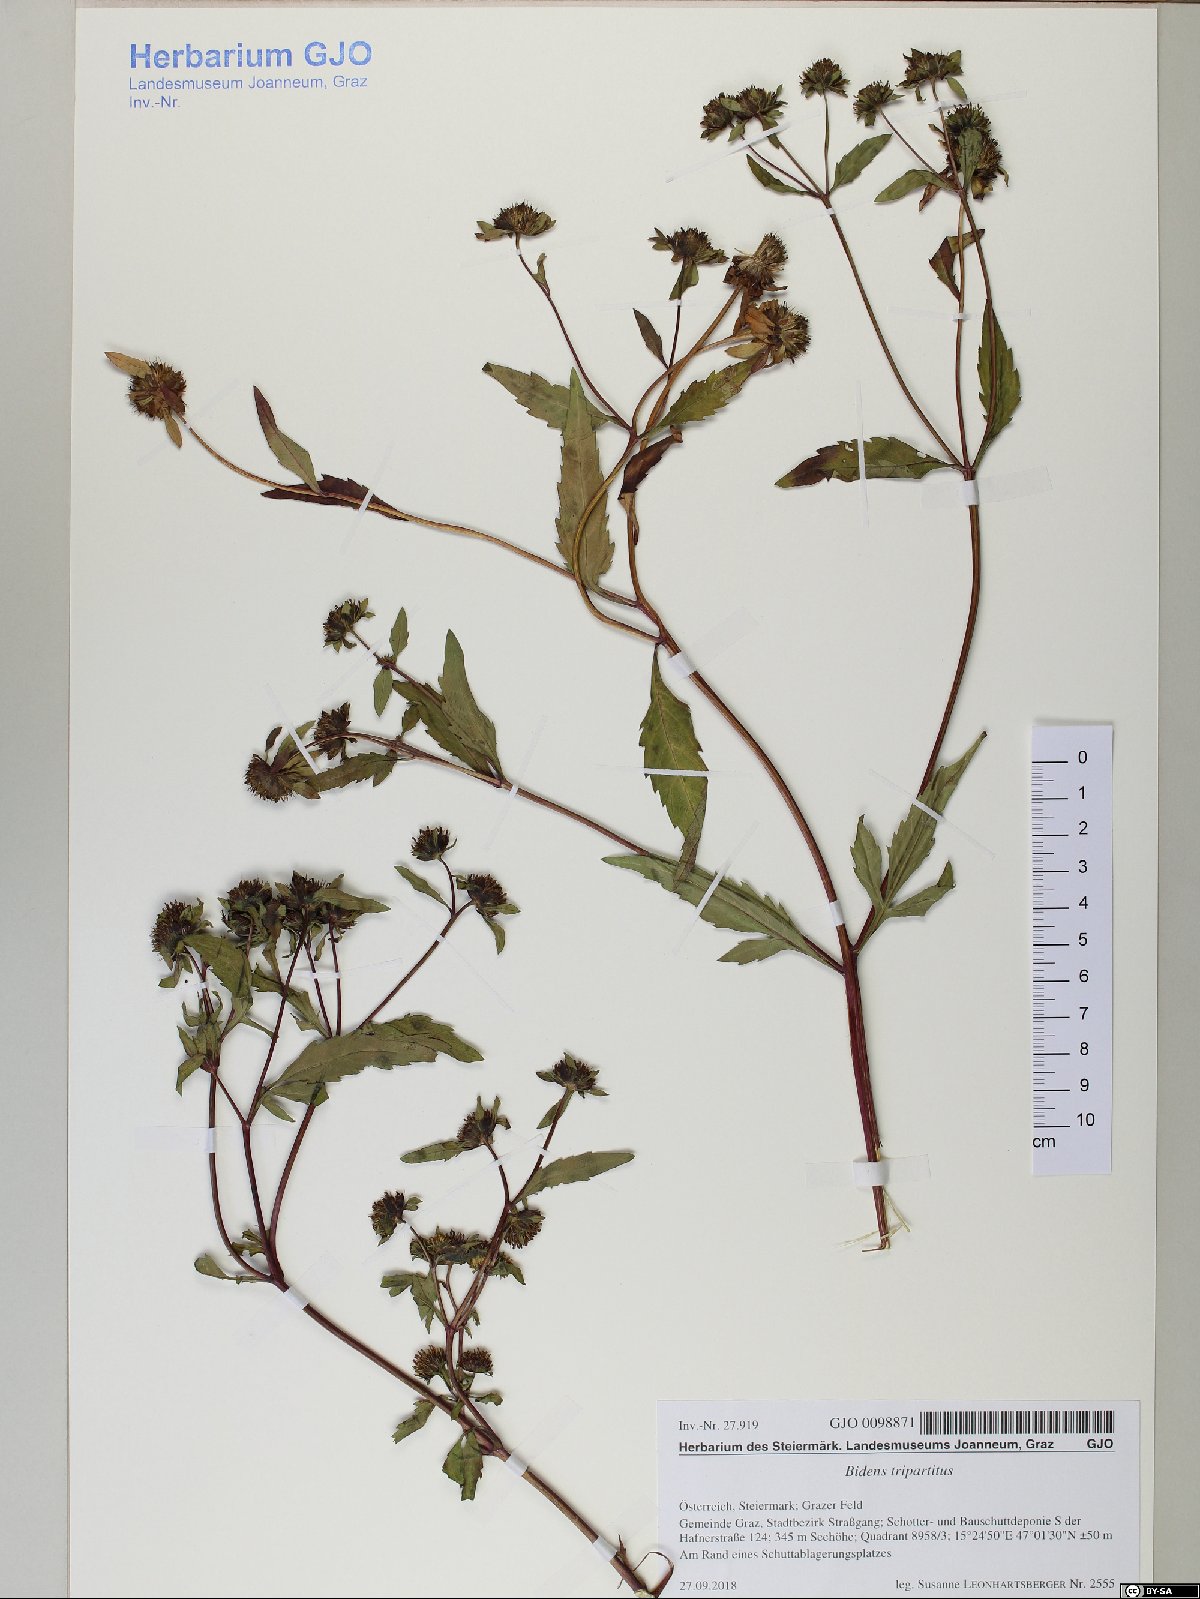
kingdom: Plantae
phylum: Tracheophyta
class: Magnoliopsida
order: Asterales
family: Asteraceae
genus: Bidens
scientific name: Bidens tripartita
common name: Trifid bur-marigold
